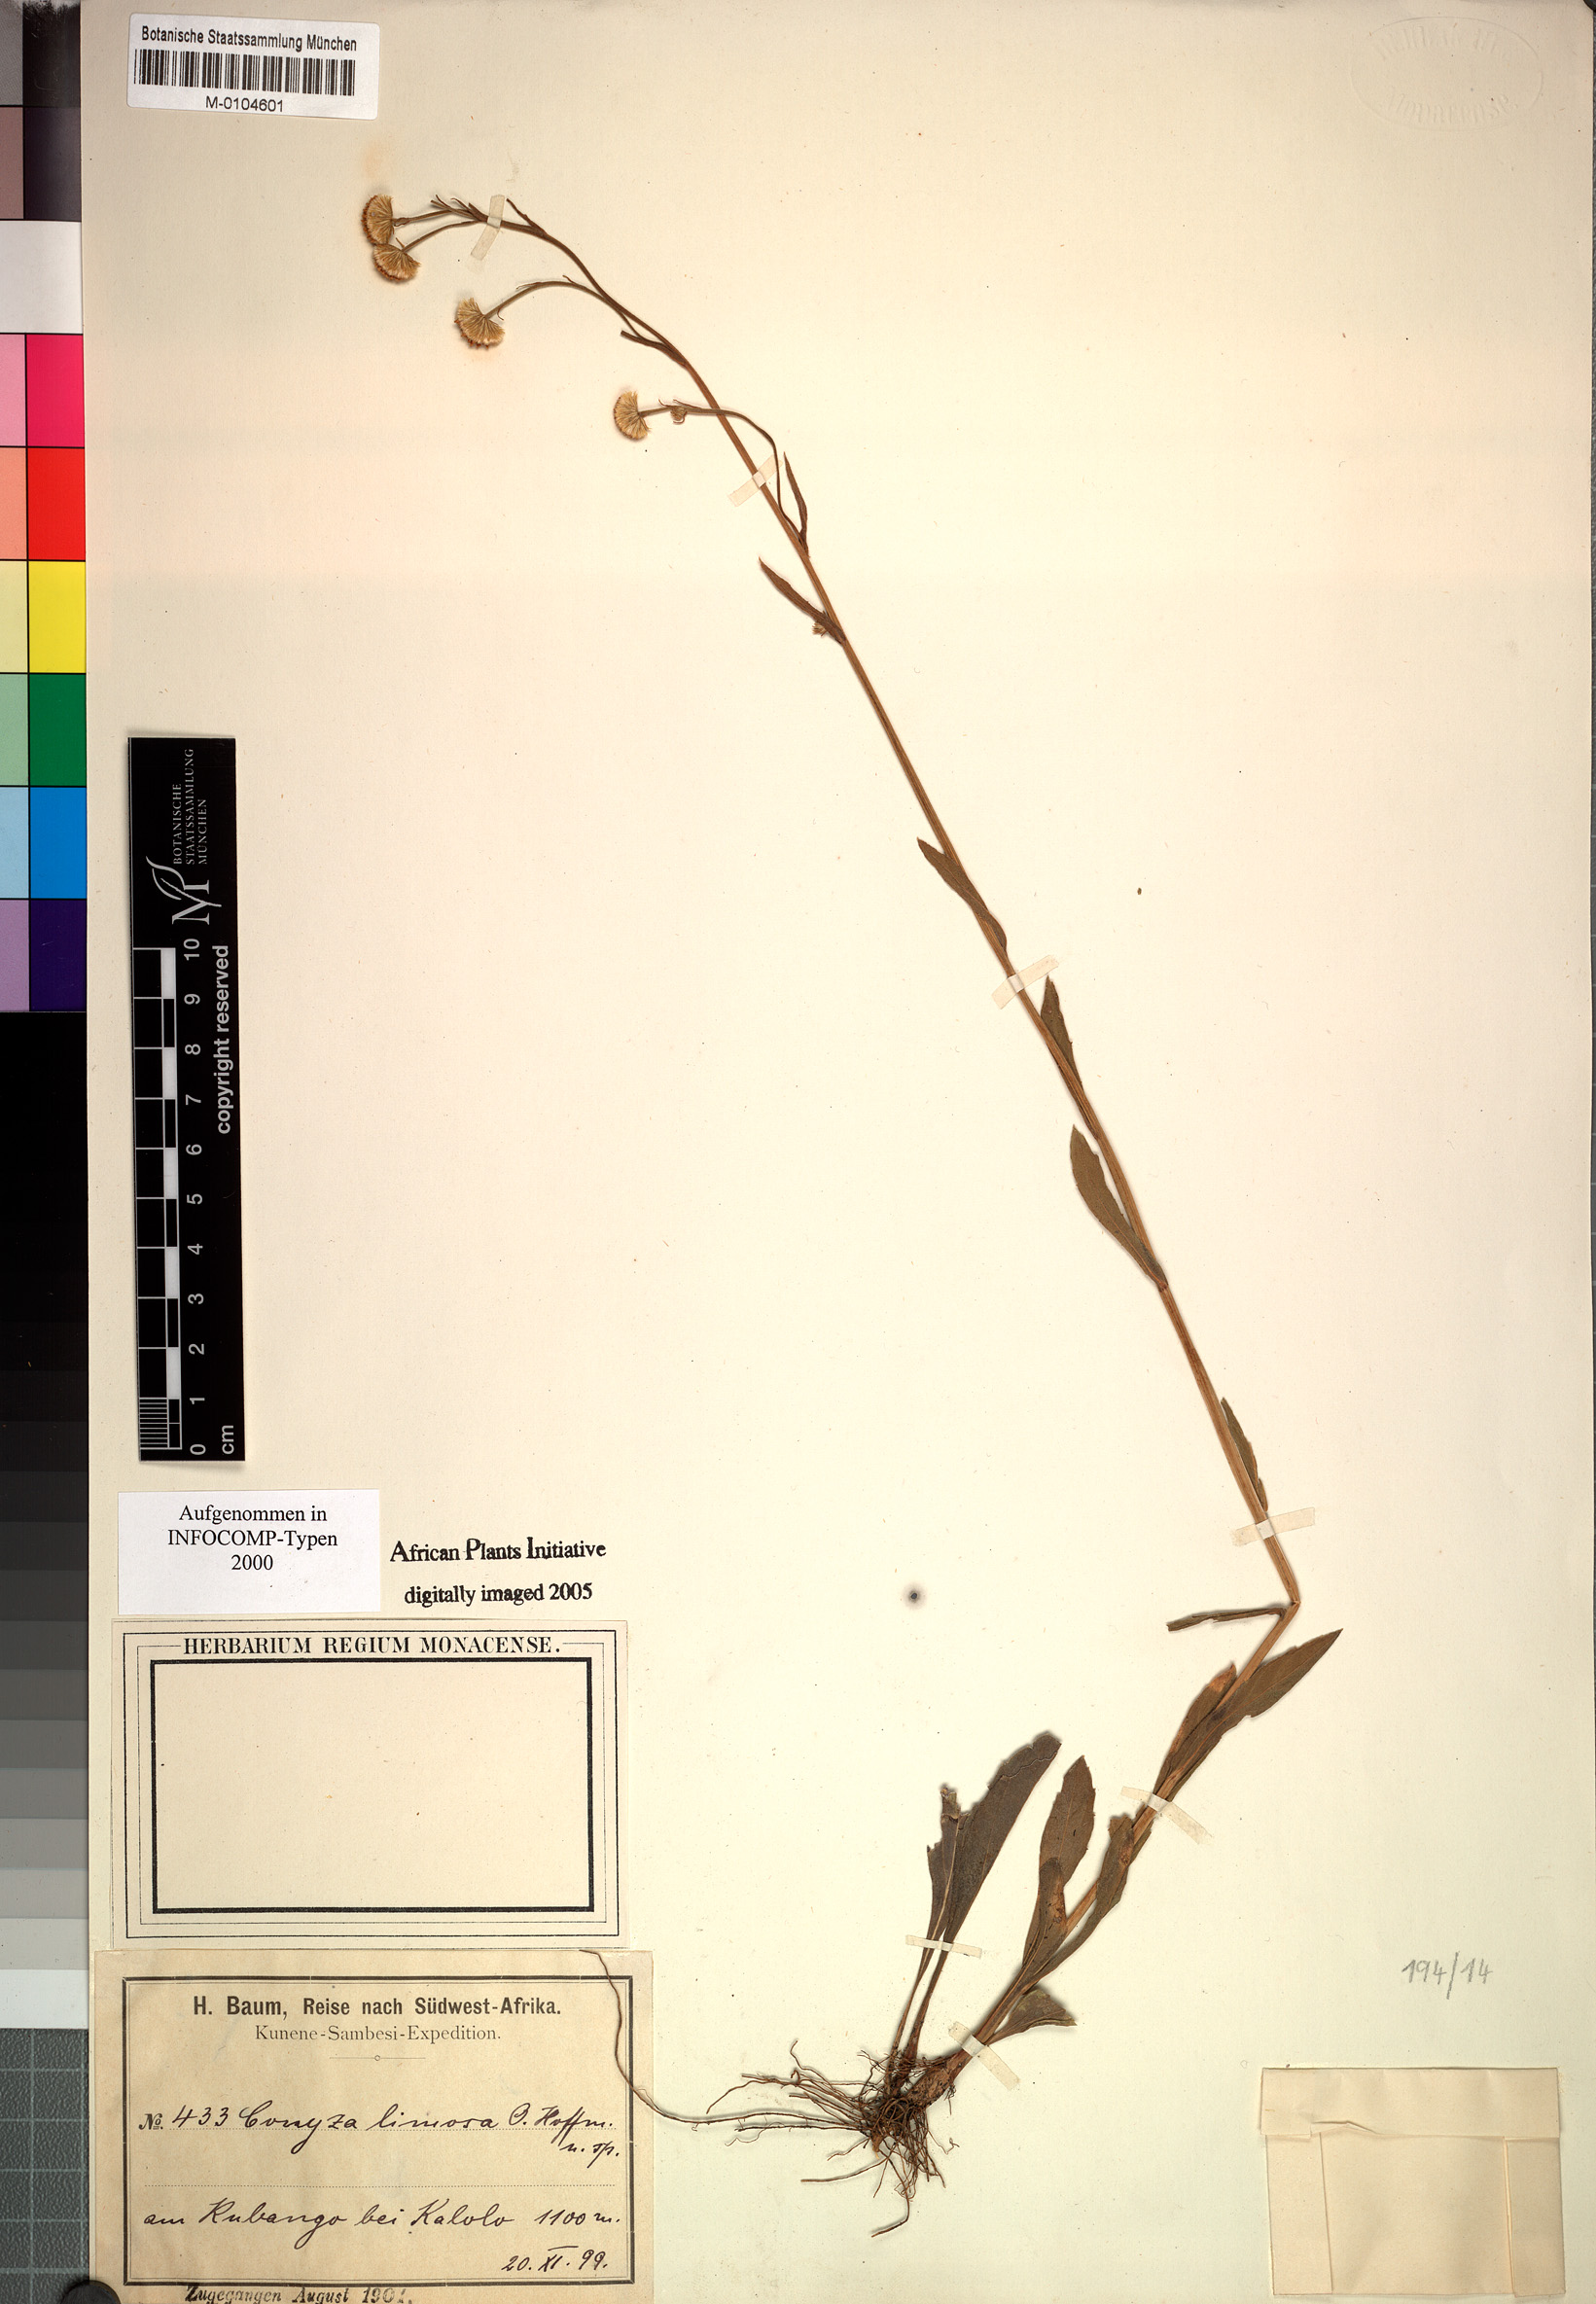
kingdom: Plantae
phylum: Tracheophyta
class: Magnoliopsida
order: Asterales
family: Asteraceae
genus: Conyza
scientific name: Conyza limosa
